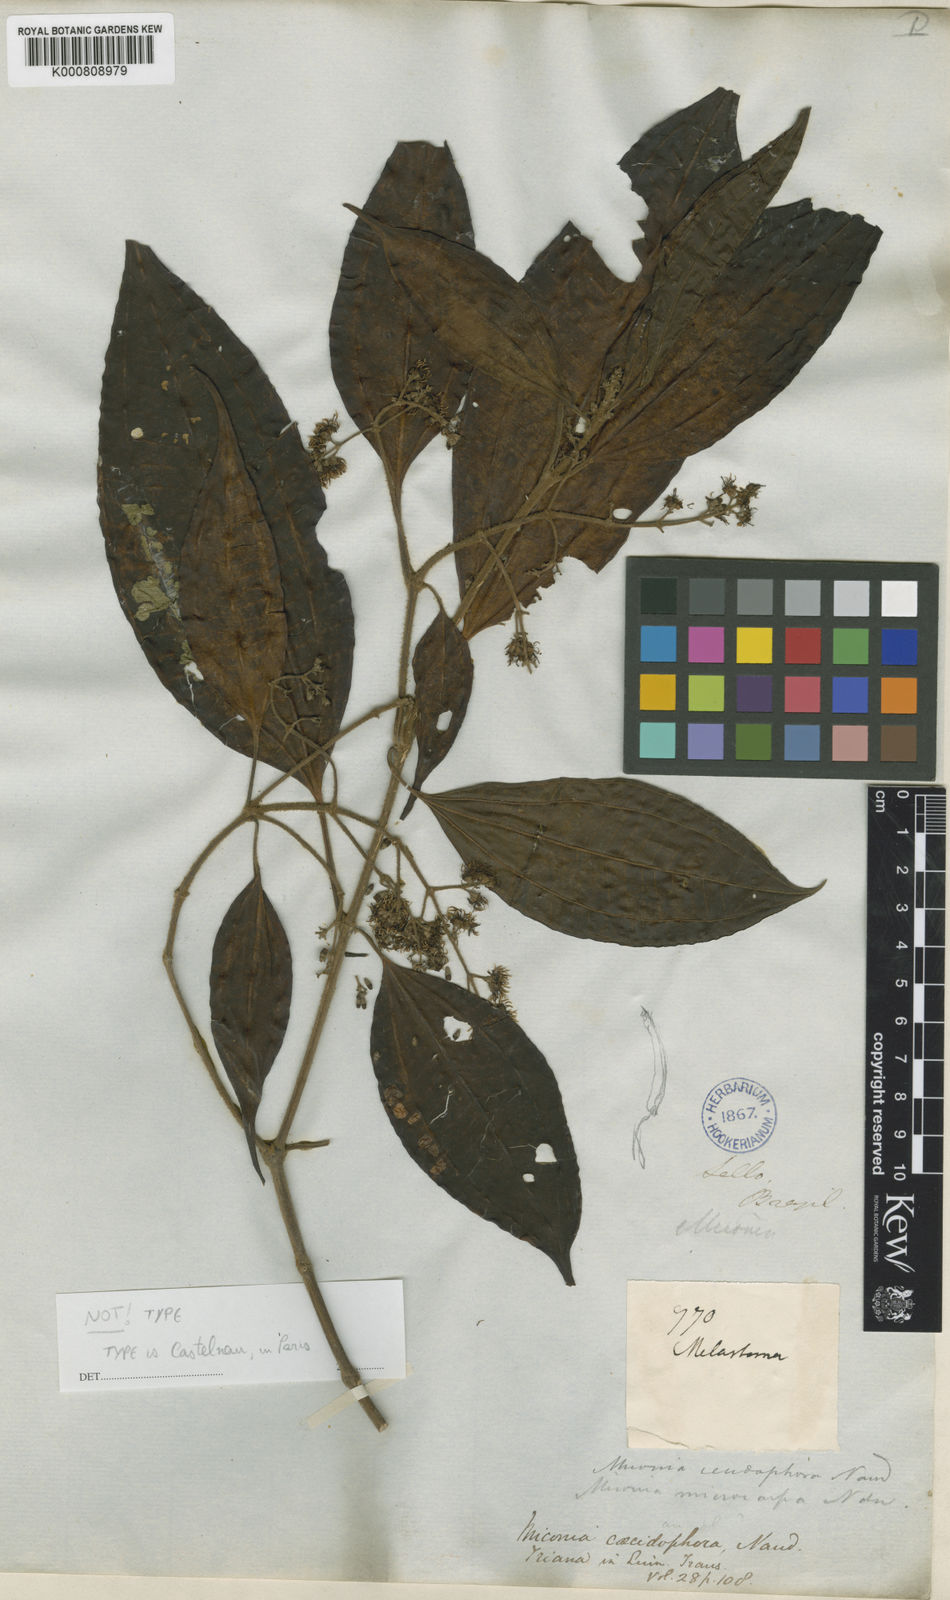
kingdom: Plantae
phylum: Tracheophyta
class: Magnoliopsida
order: Myrtales
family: Melastomataceae
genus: Miconia
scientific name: Miconia affinis
